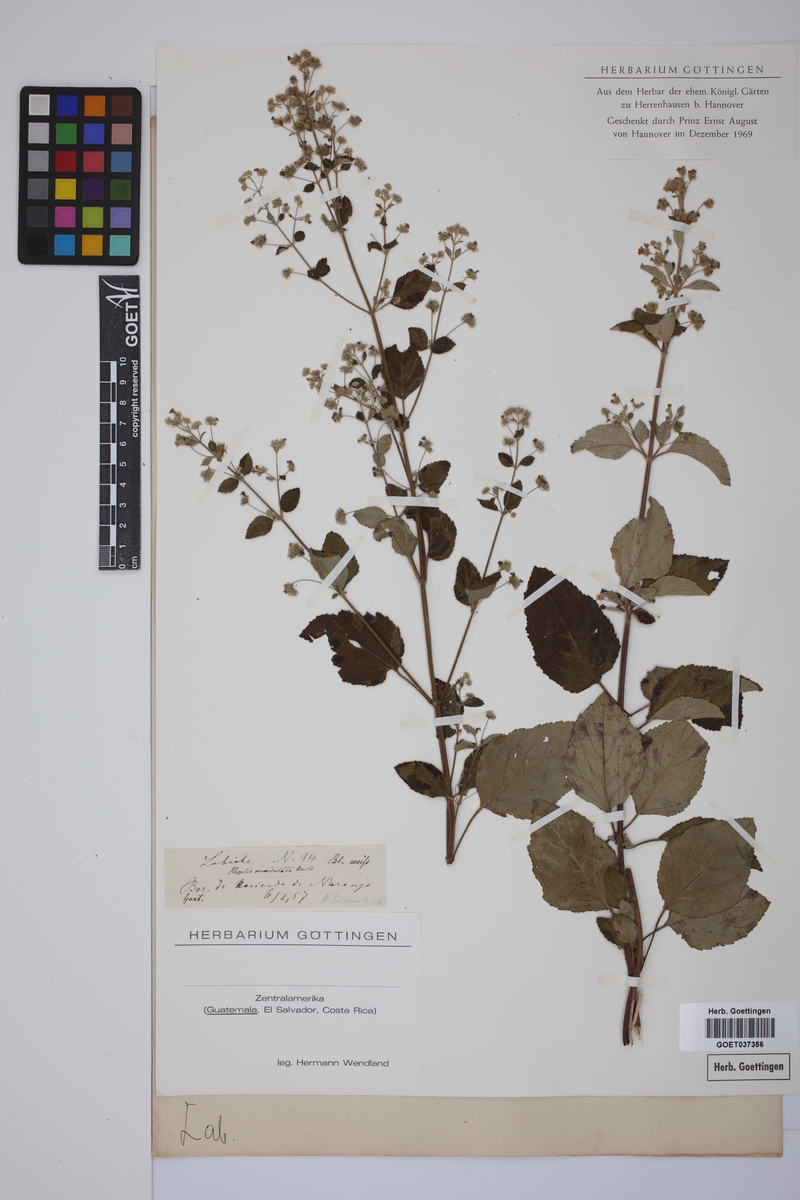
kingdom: Plantae
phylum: Tracheophyta
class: Magnoliopsida
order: Lamiales
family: Lamiaceae
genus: Hyptis
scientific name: Hyptis
